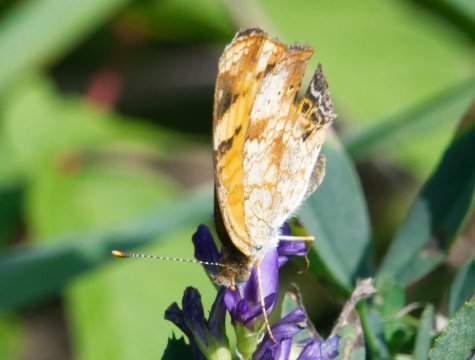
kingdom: Animalia
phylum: Arthropoda
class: Insecta
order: Lepidoptera
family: Nymphalidae
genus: Phyciodes
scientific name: Phyciodes
